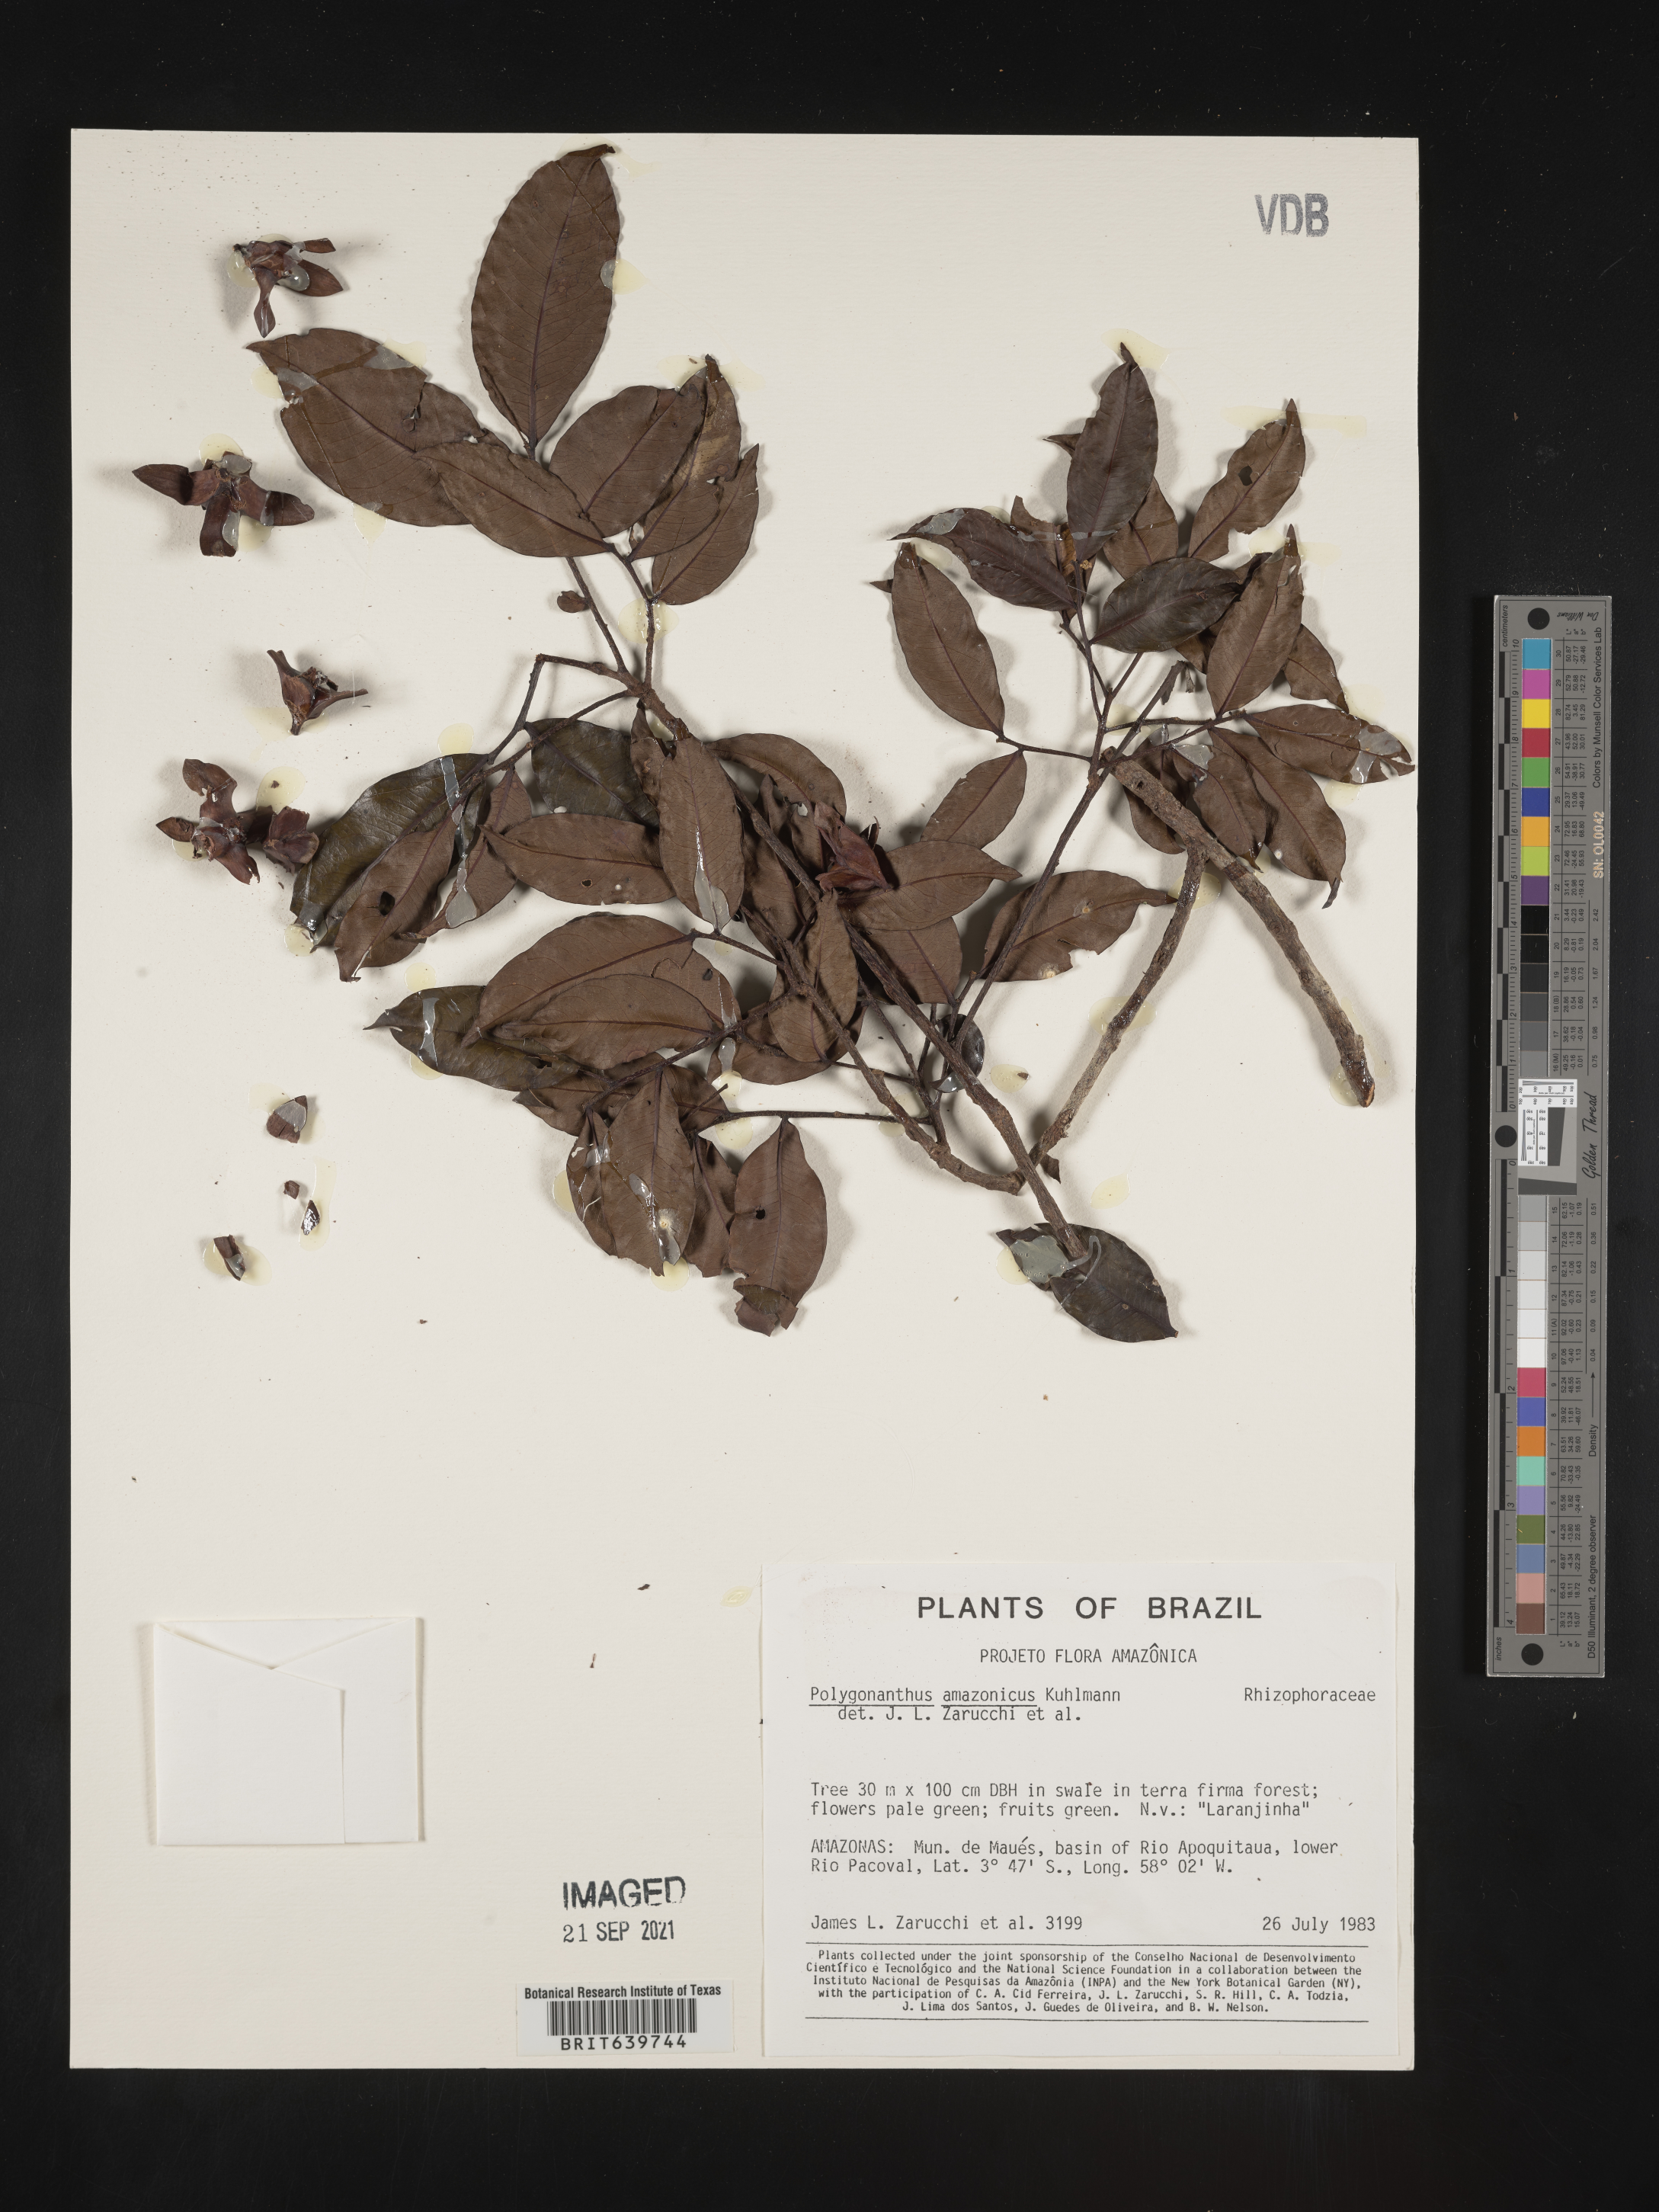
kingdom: Plantae
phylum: Tracheophyta
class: Magnoliopsida
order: Cucurbitales
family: Anisophylleaceae
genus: Polygonanthus
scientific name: Polygonanthus amazonicus
